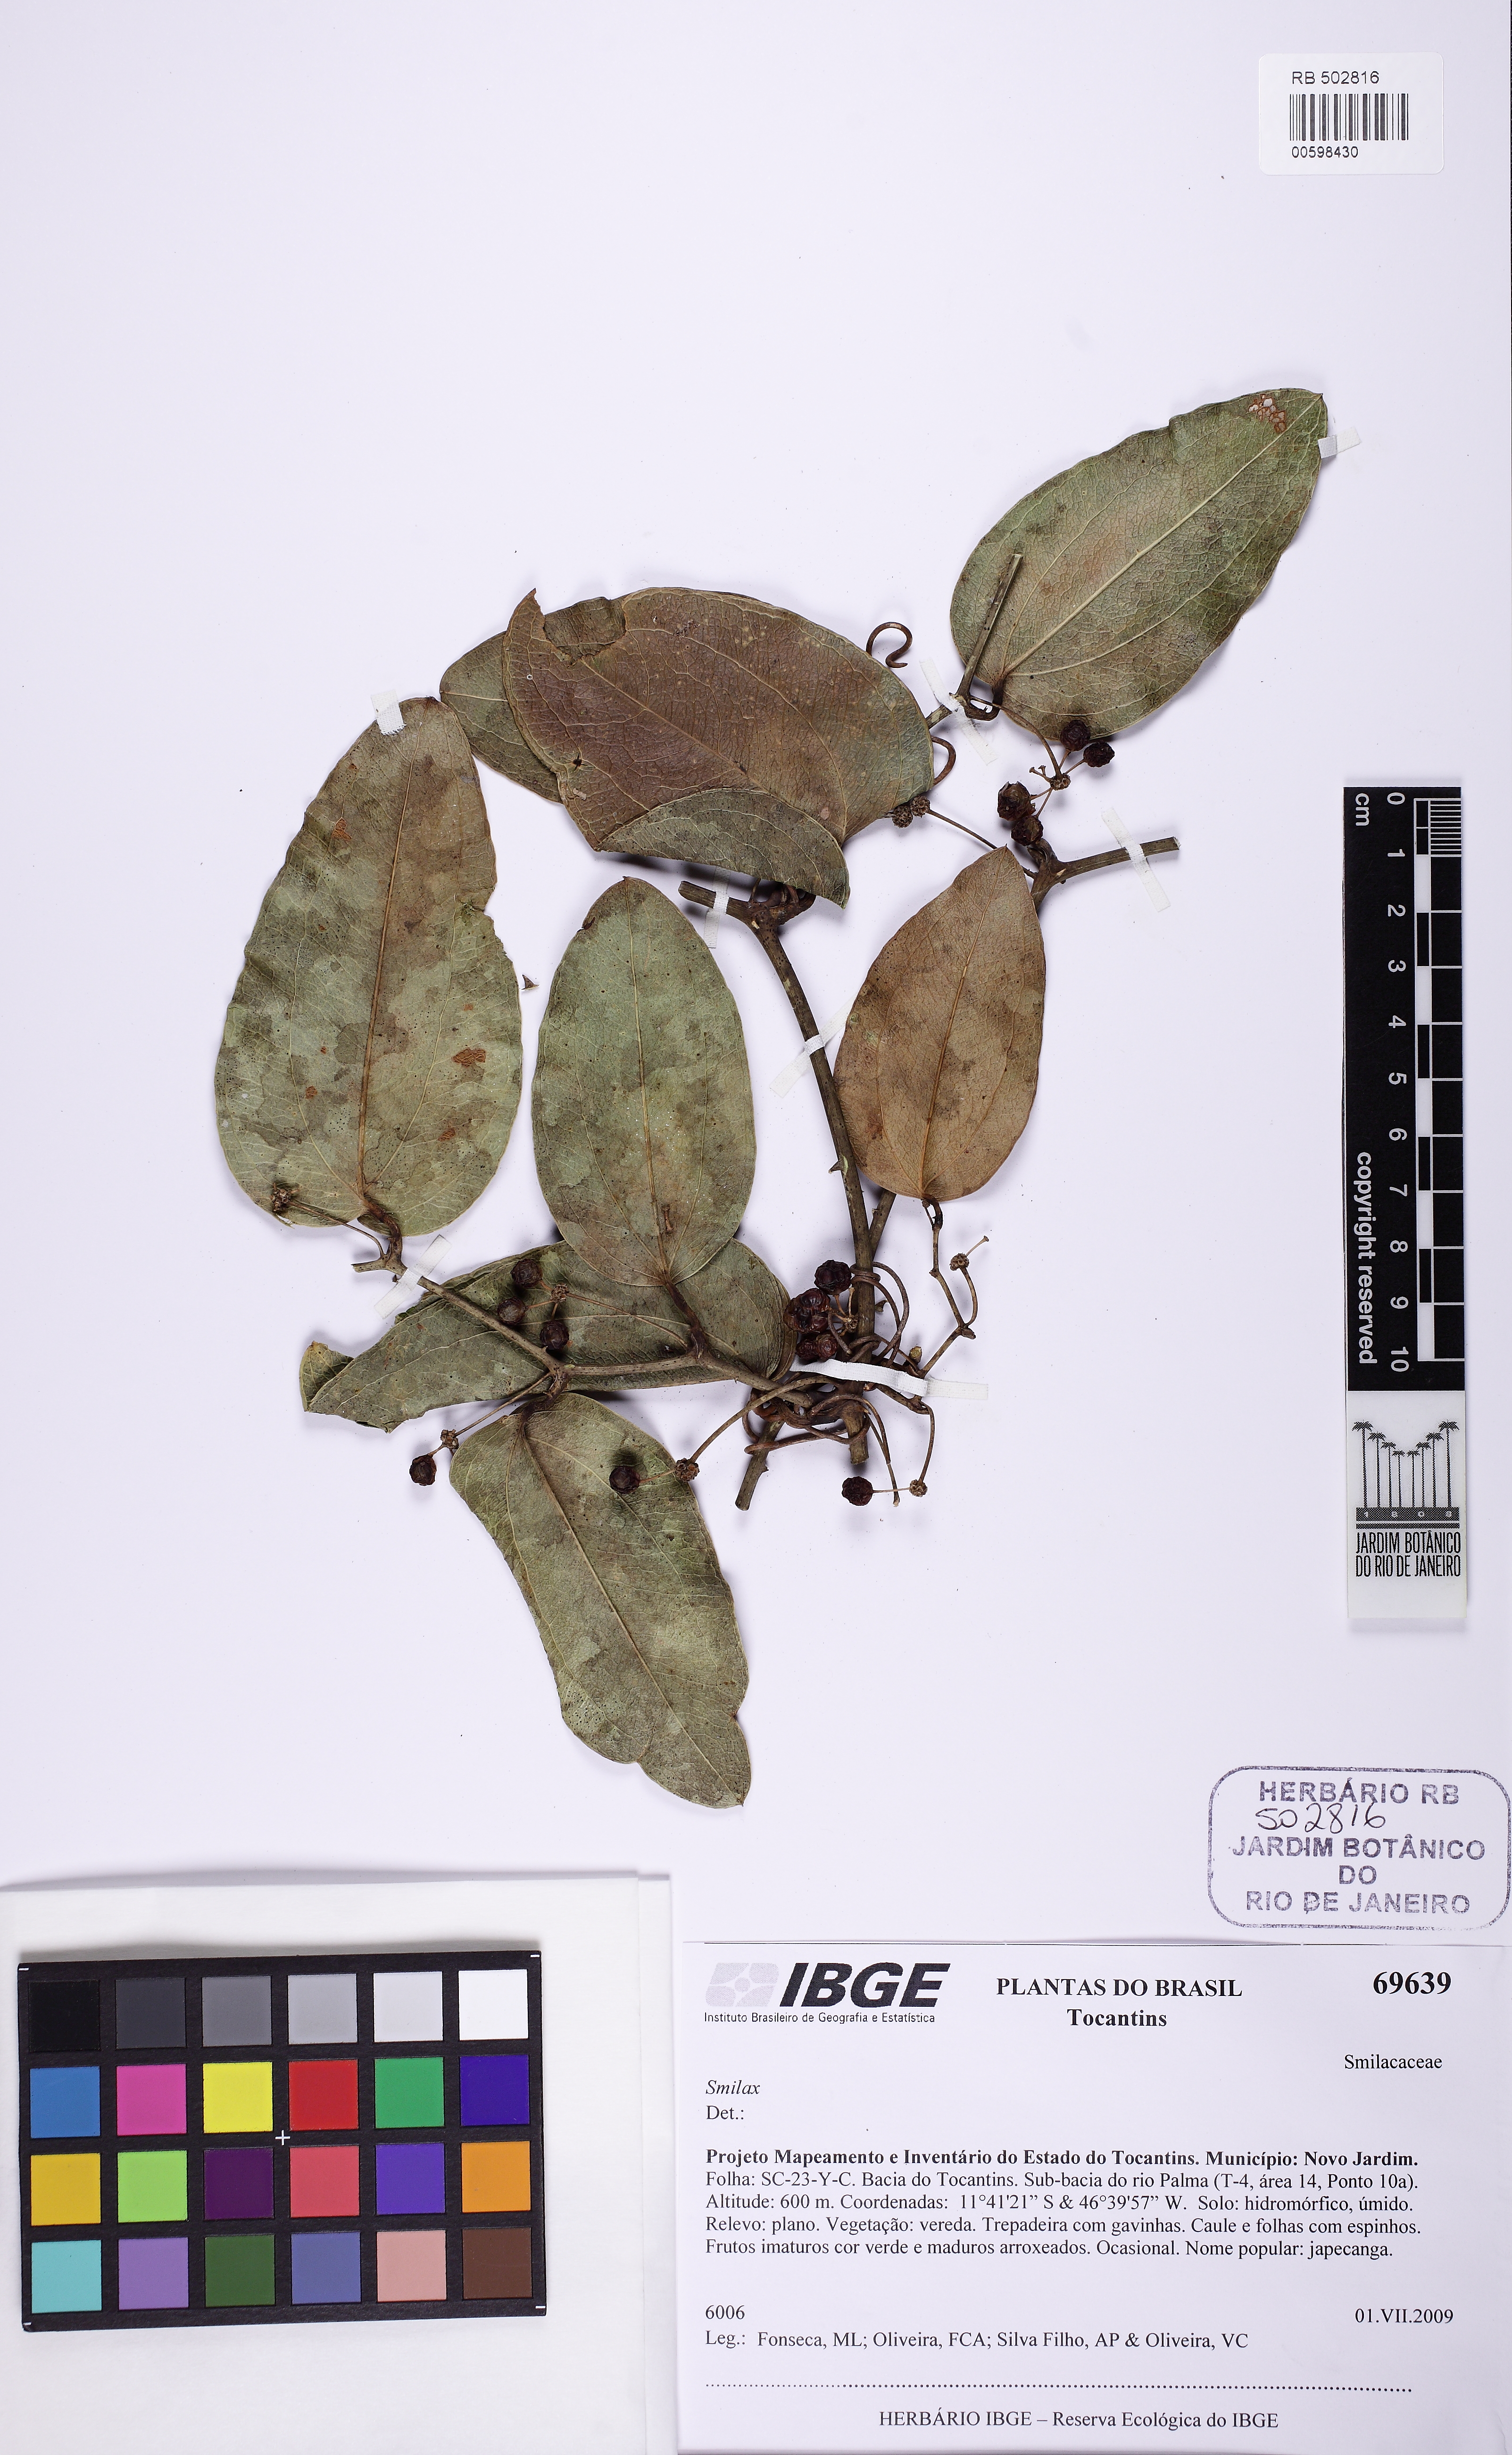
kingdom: Plantae
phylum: Tracheophyta
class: Liliopsida
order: Liliales
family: Smilacaceae
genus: Smilax
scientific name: Smilax
